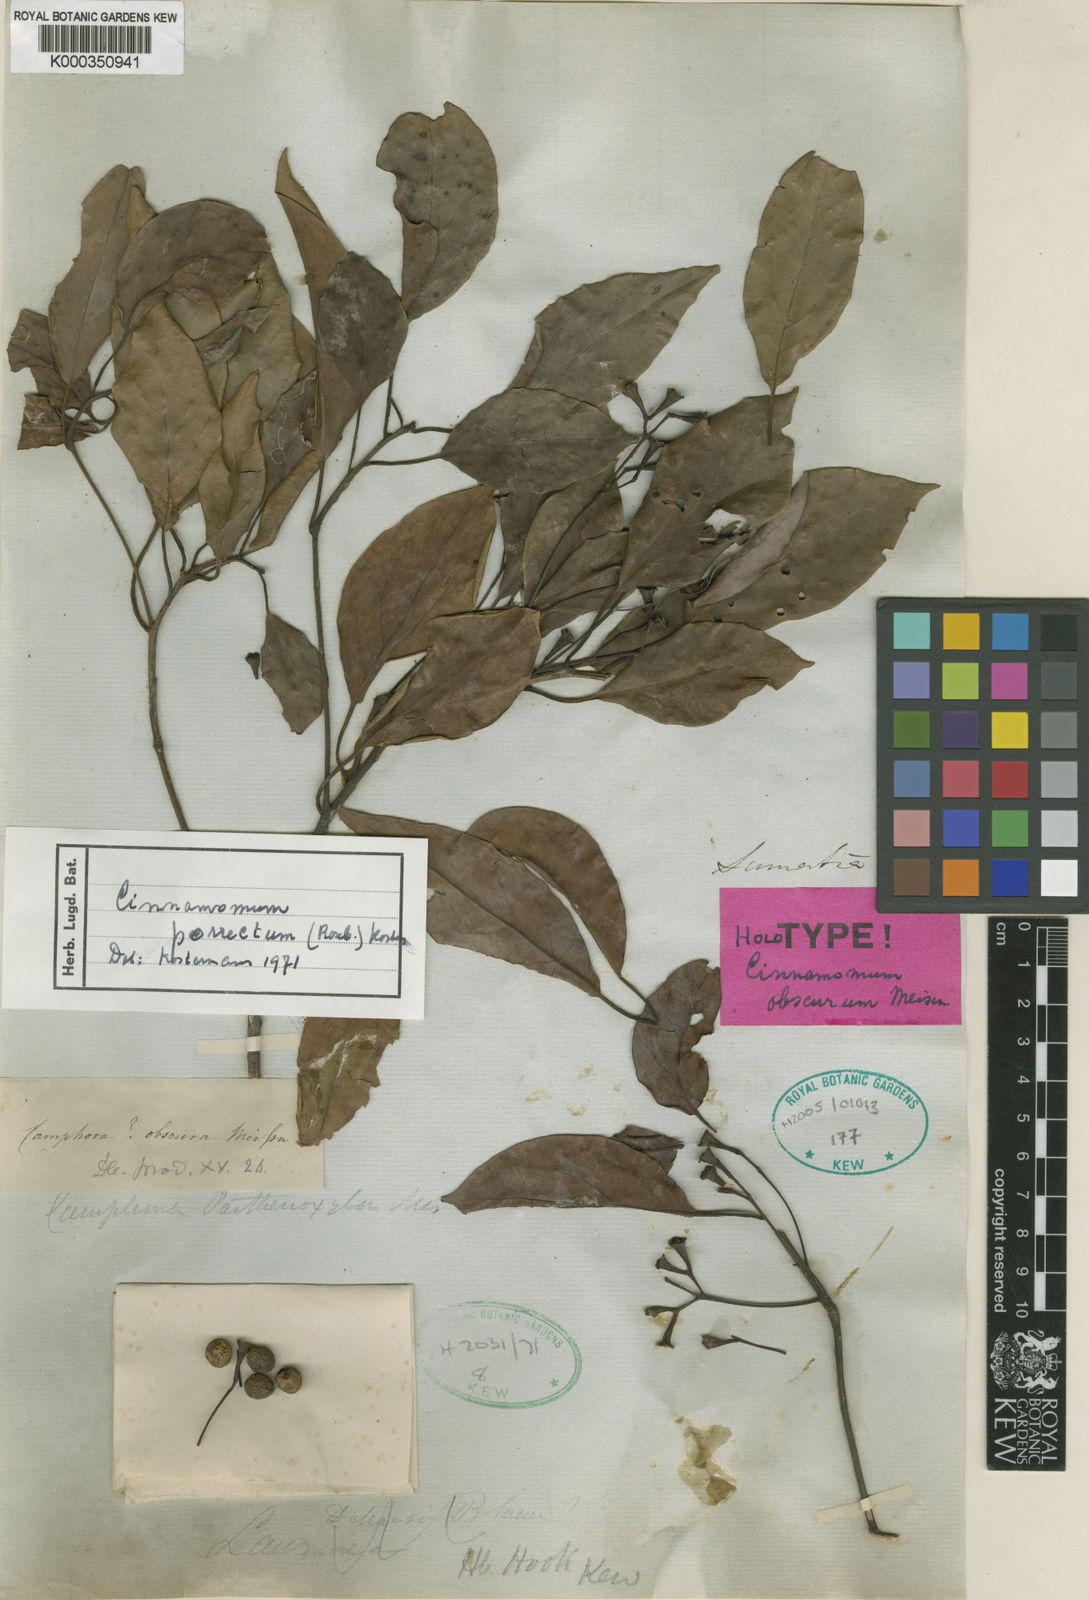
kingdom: Plantae
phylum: Tracheophyta
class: Magnoliopsida
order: Laurales
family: Lauraceae
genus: Cinnamomum
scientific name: Cinnamomum
